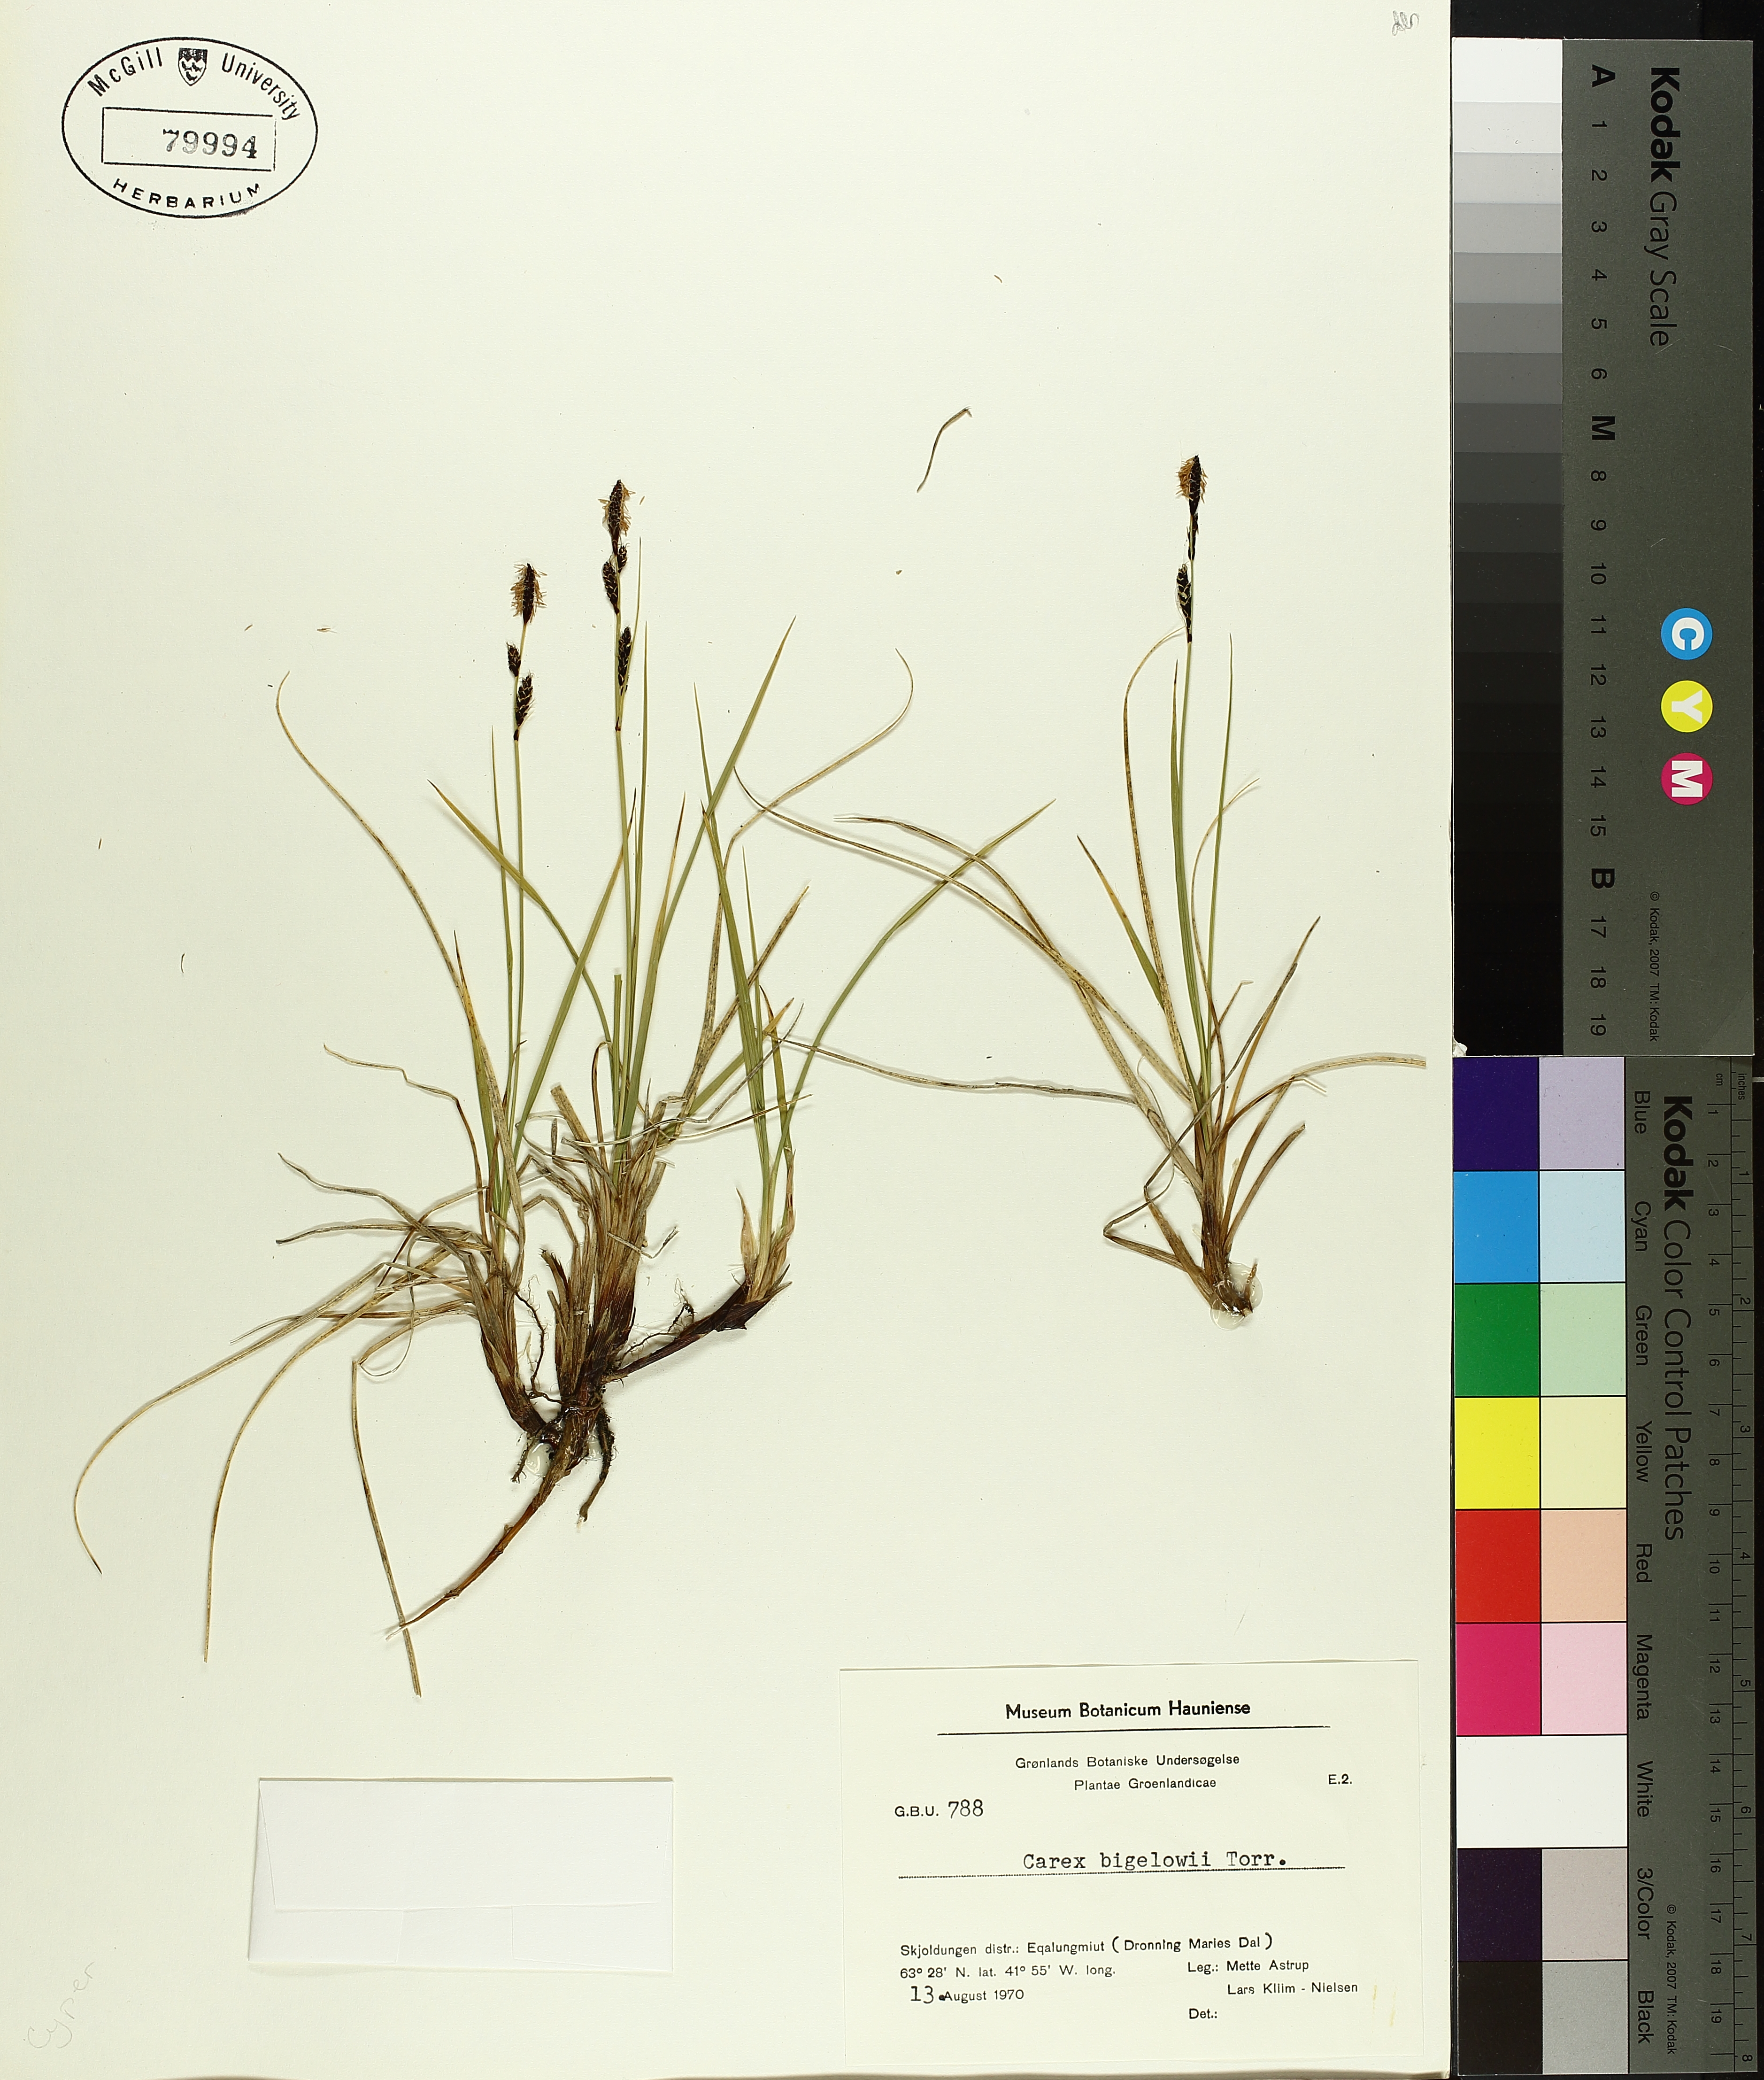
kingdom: Plantae
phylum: Tracheophyta
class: Liliopsida
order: Poales
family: Cyperaceae
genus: Carex
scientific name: Carex bigelowii
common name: Stiff sedge
